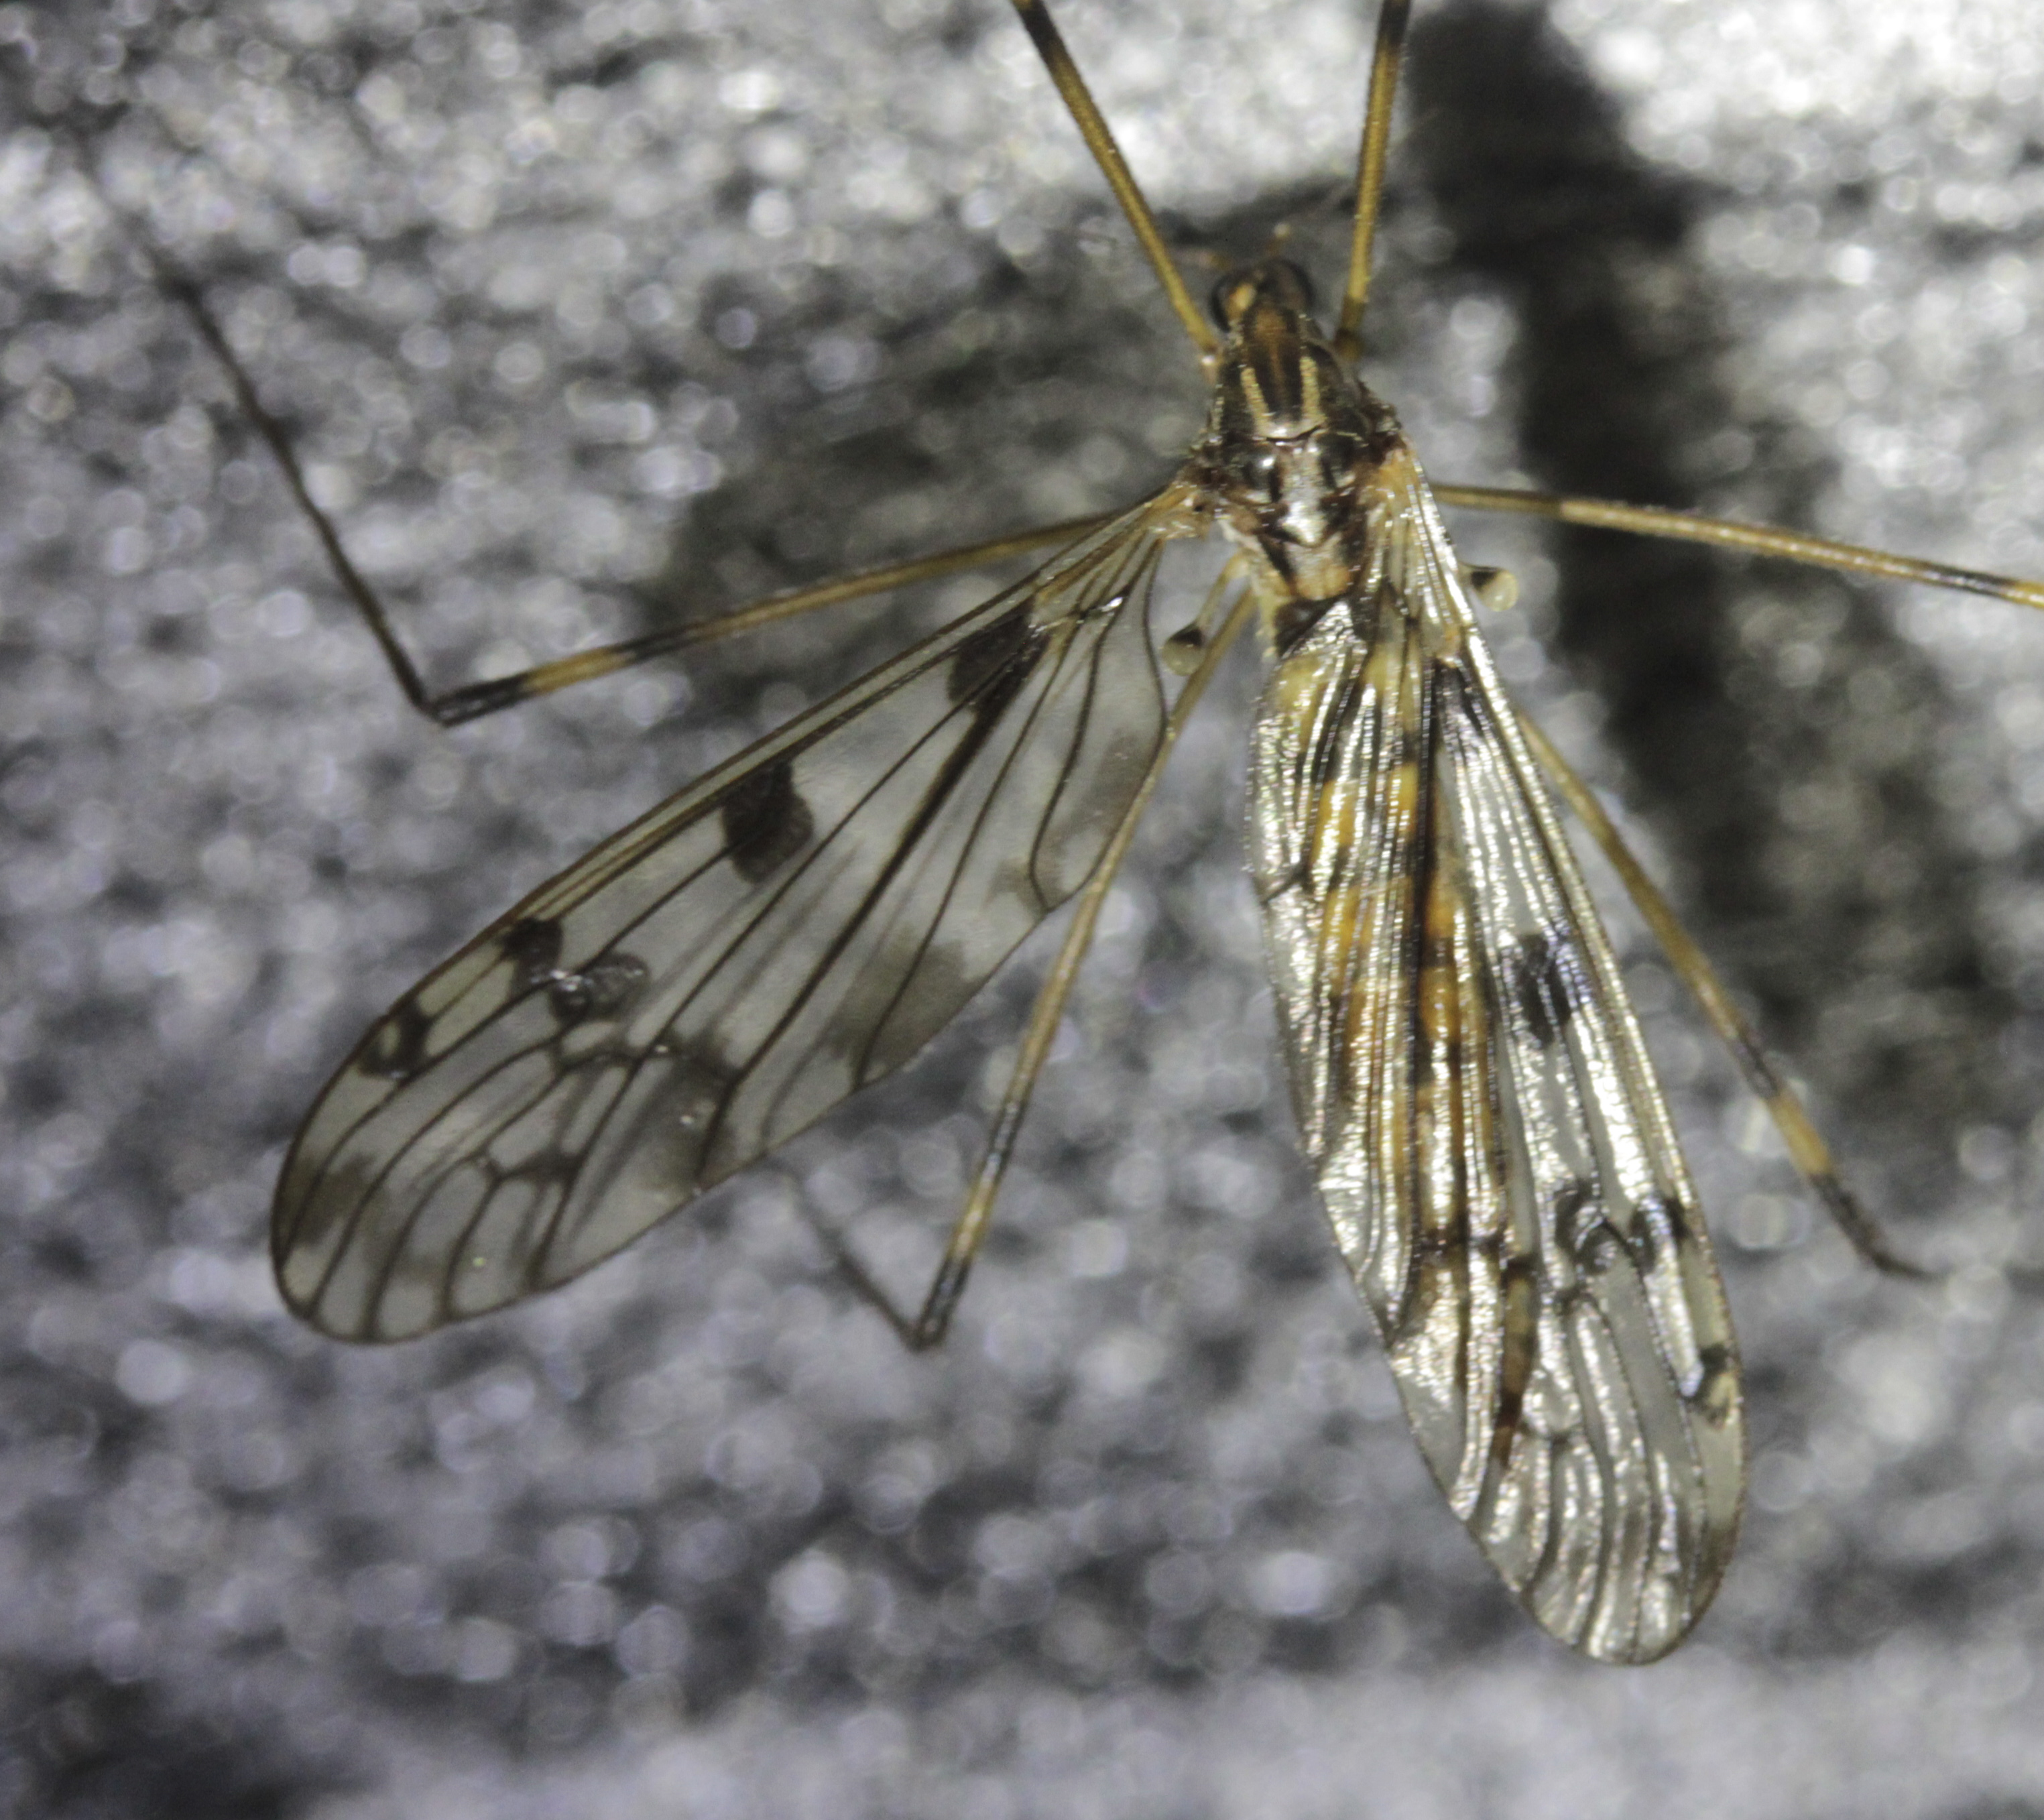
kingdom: Animalia
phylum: Arthropoda
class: Insecta
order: Diptera
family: Tipulidae
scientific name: Tipulidae
